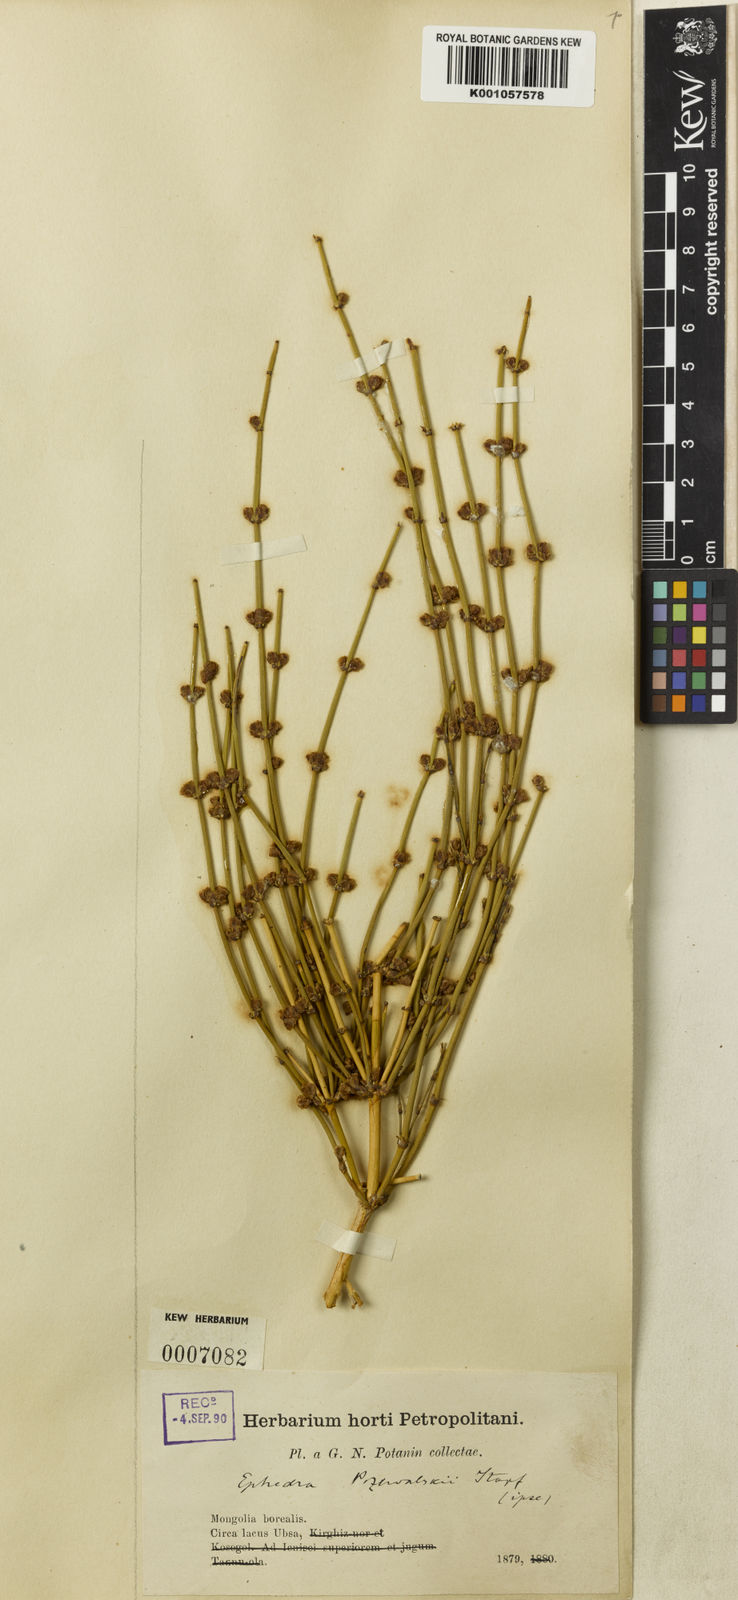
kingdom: Plantae
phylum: Tracheophyta
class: Gnetopsida
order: Ephedrales
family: Ephedraceae
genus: Ephedra
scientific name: Ephedra przewalskii
